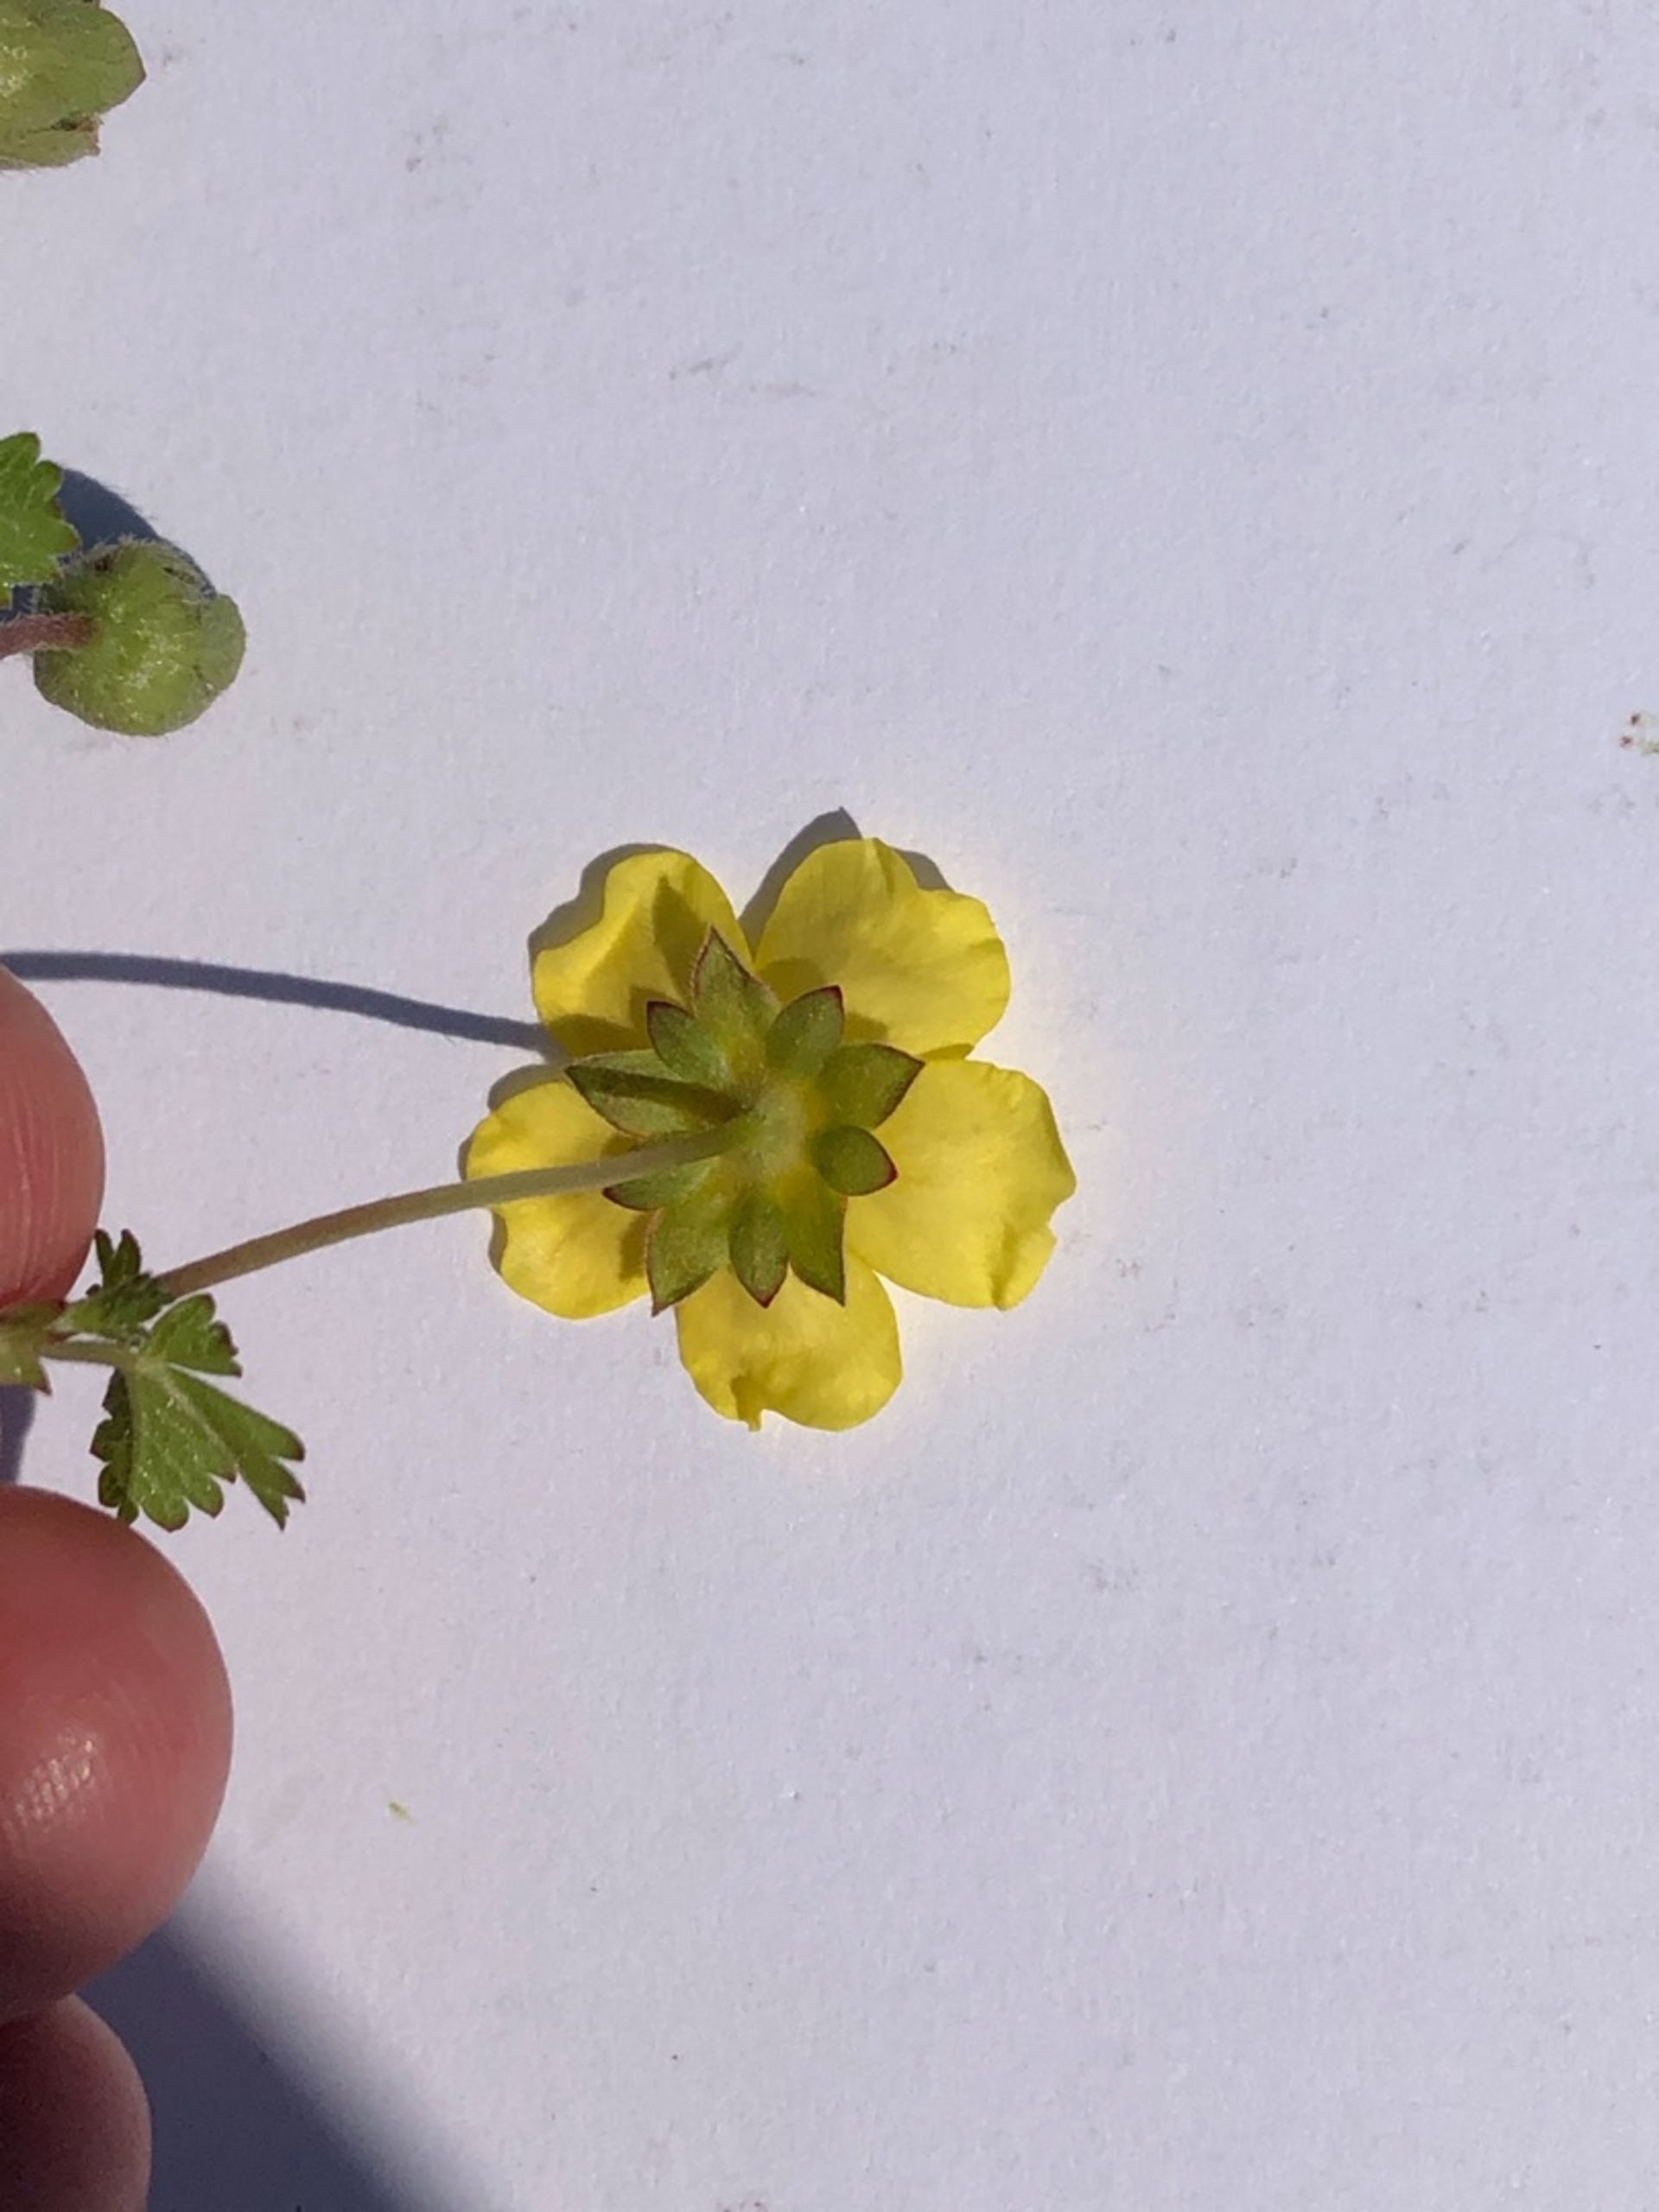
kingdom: Plantae
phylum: Tracheophyta
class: Magnoliopsida
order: Rosales
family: Rosaceae
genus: Potentilla
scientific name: Potentilla reptans
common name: Krybende potentil
